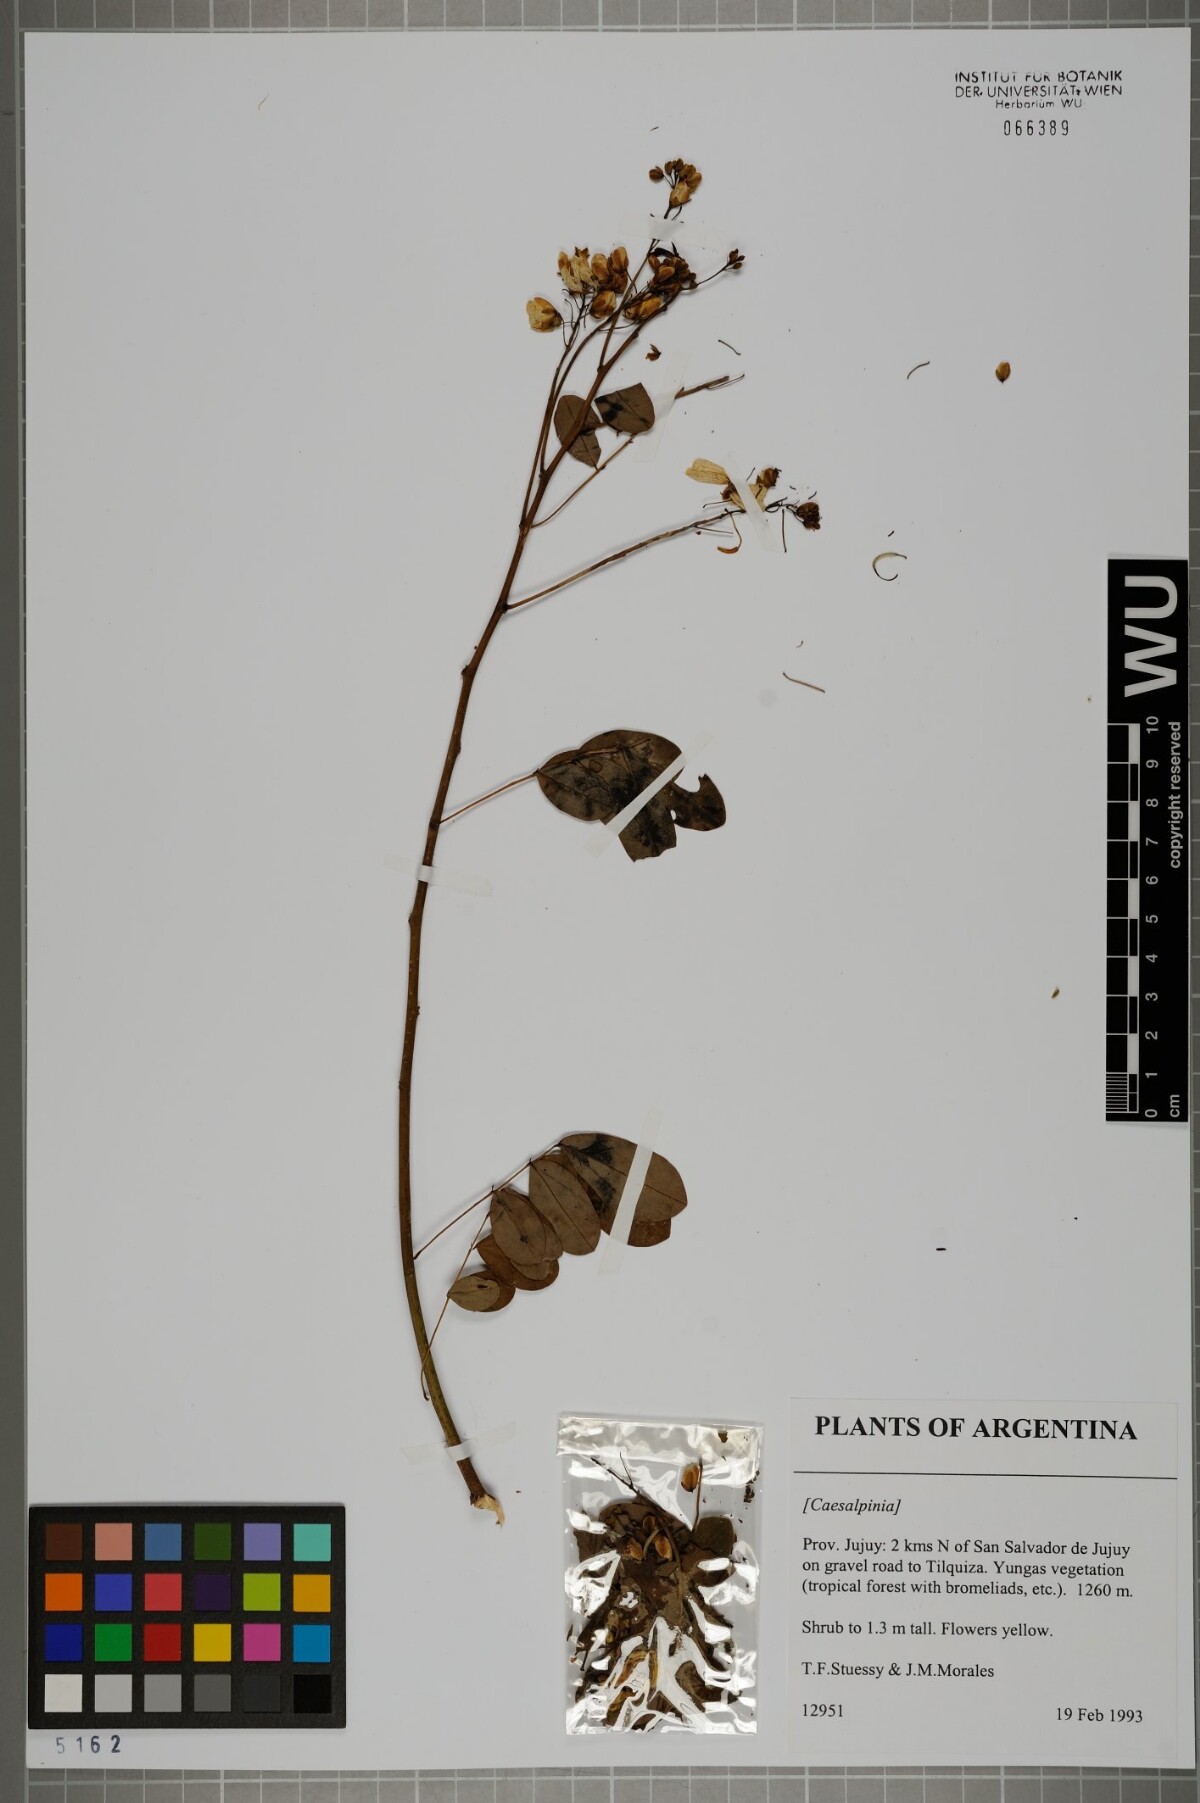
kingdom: Plantae
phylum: Tracheophyta
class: Magnoliopsida
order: Fabales
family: Fabaceae
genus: Caesalpinia
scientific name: Caesalpinia
